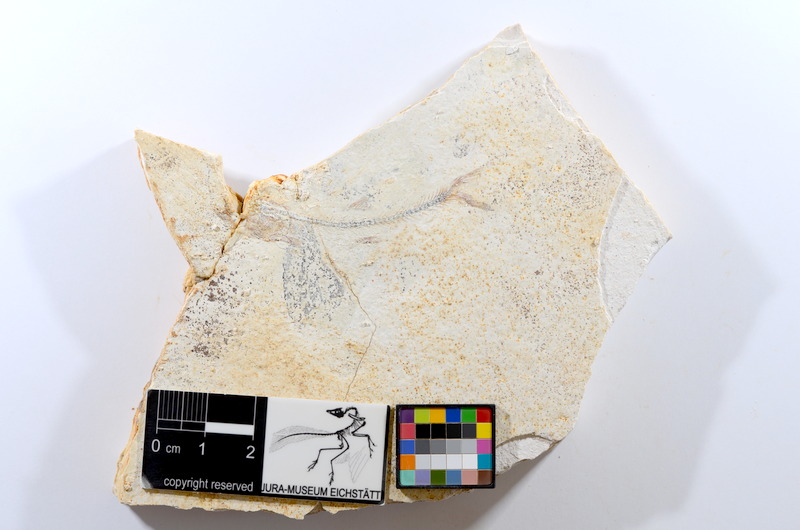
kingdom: Animalia
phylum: Chordata
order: Salmoniformes
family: Orthogonikleithridae
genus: Orthogonikleithrus
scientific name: Orthogonikleithrus hoelli
